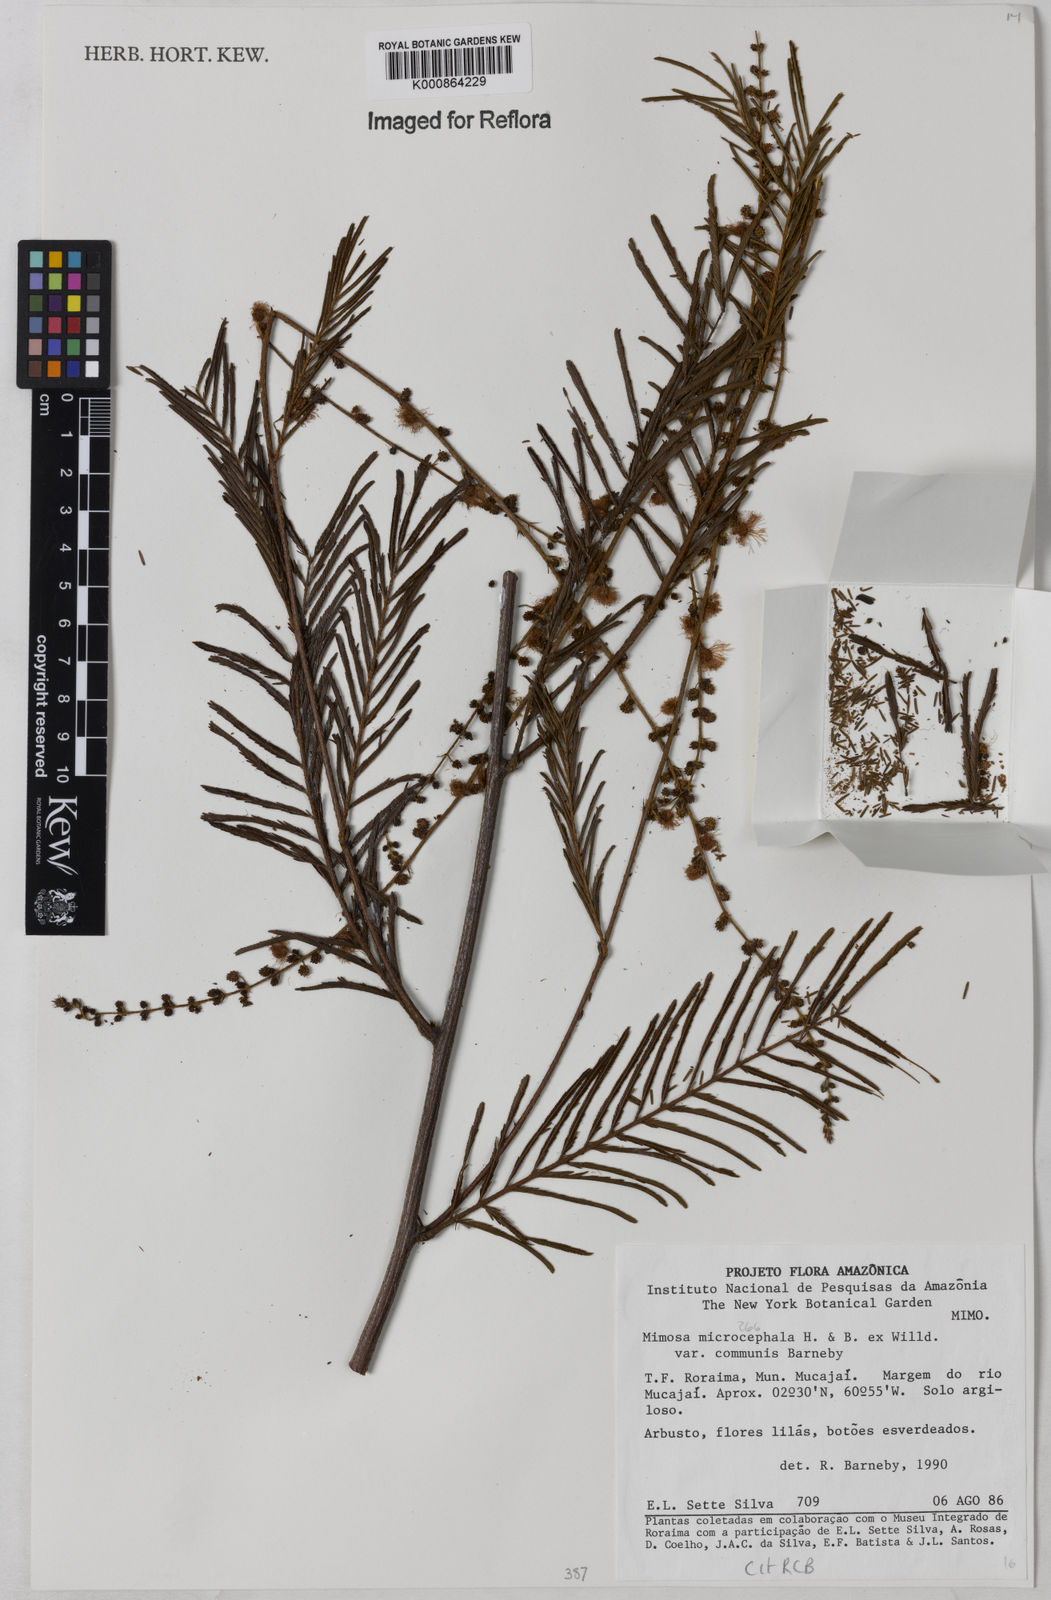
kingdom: Plantae
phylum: Tracheophyta
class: Magnoliopsida
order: Fabales
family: Fabaceae
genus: Mimosa
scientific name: Mimosa microcephala
